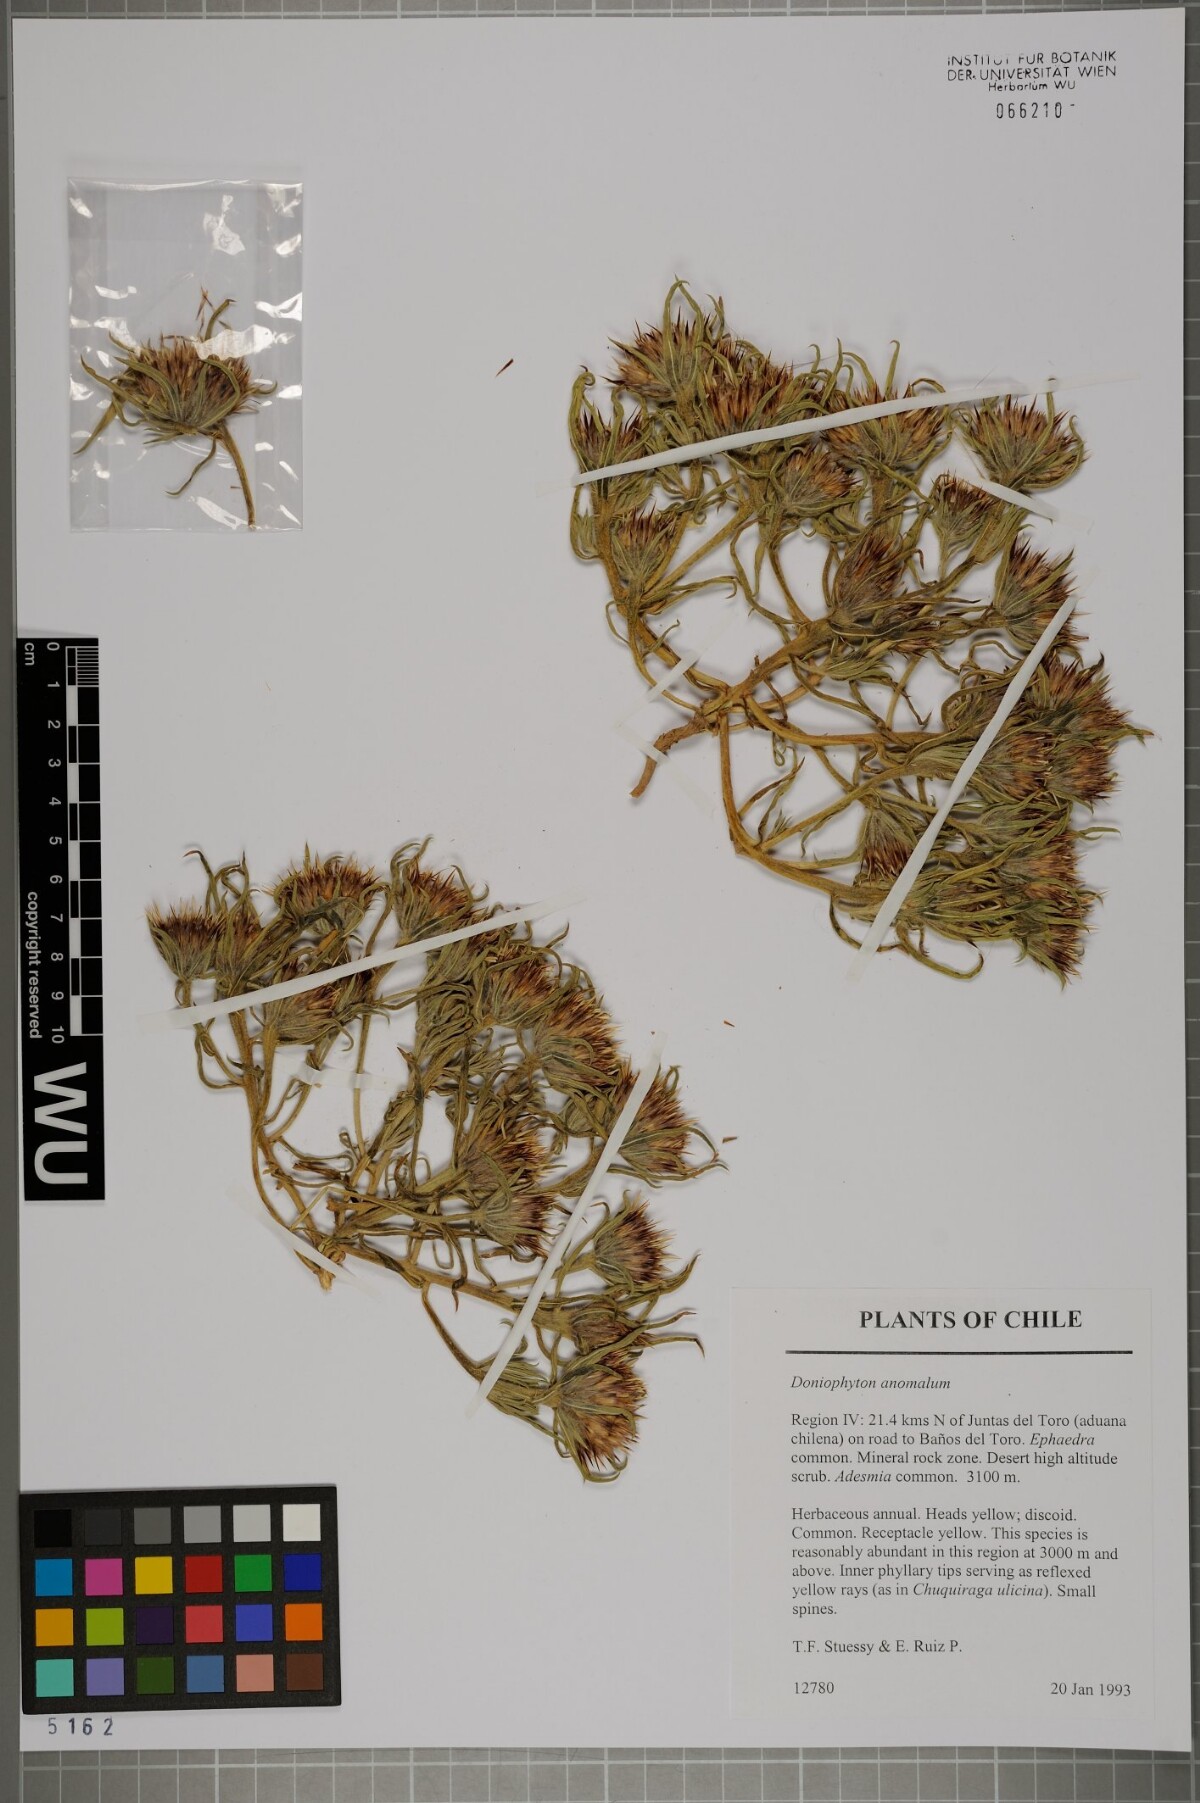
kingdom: Plantae
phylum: Tracheophyta
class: Magnoliopsida
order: Asterales
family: Asteraceae
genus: Doniophyton
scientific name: Doniophyton weddellii
